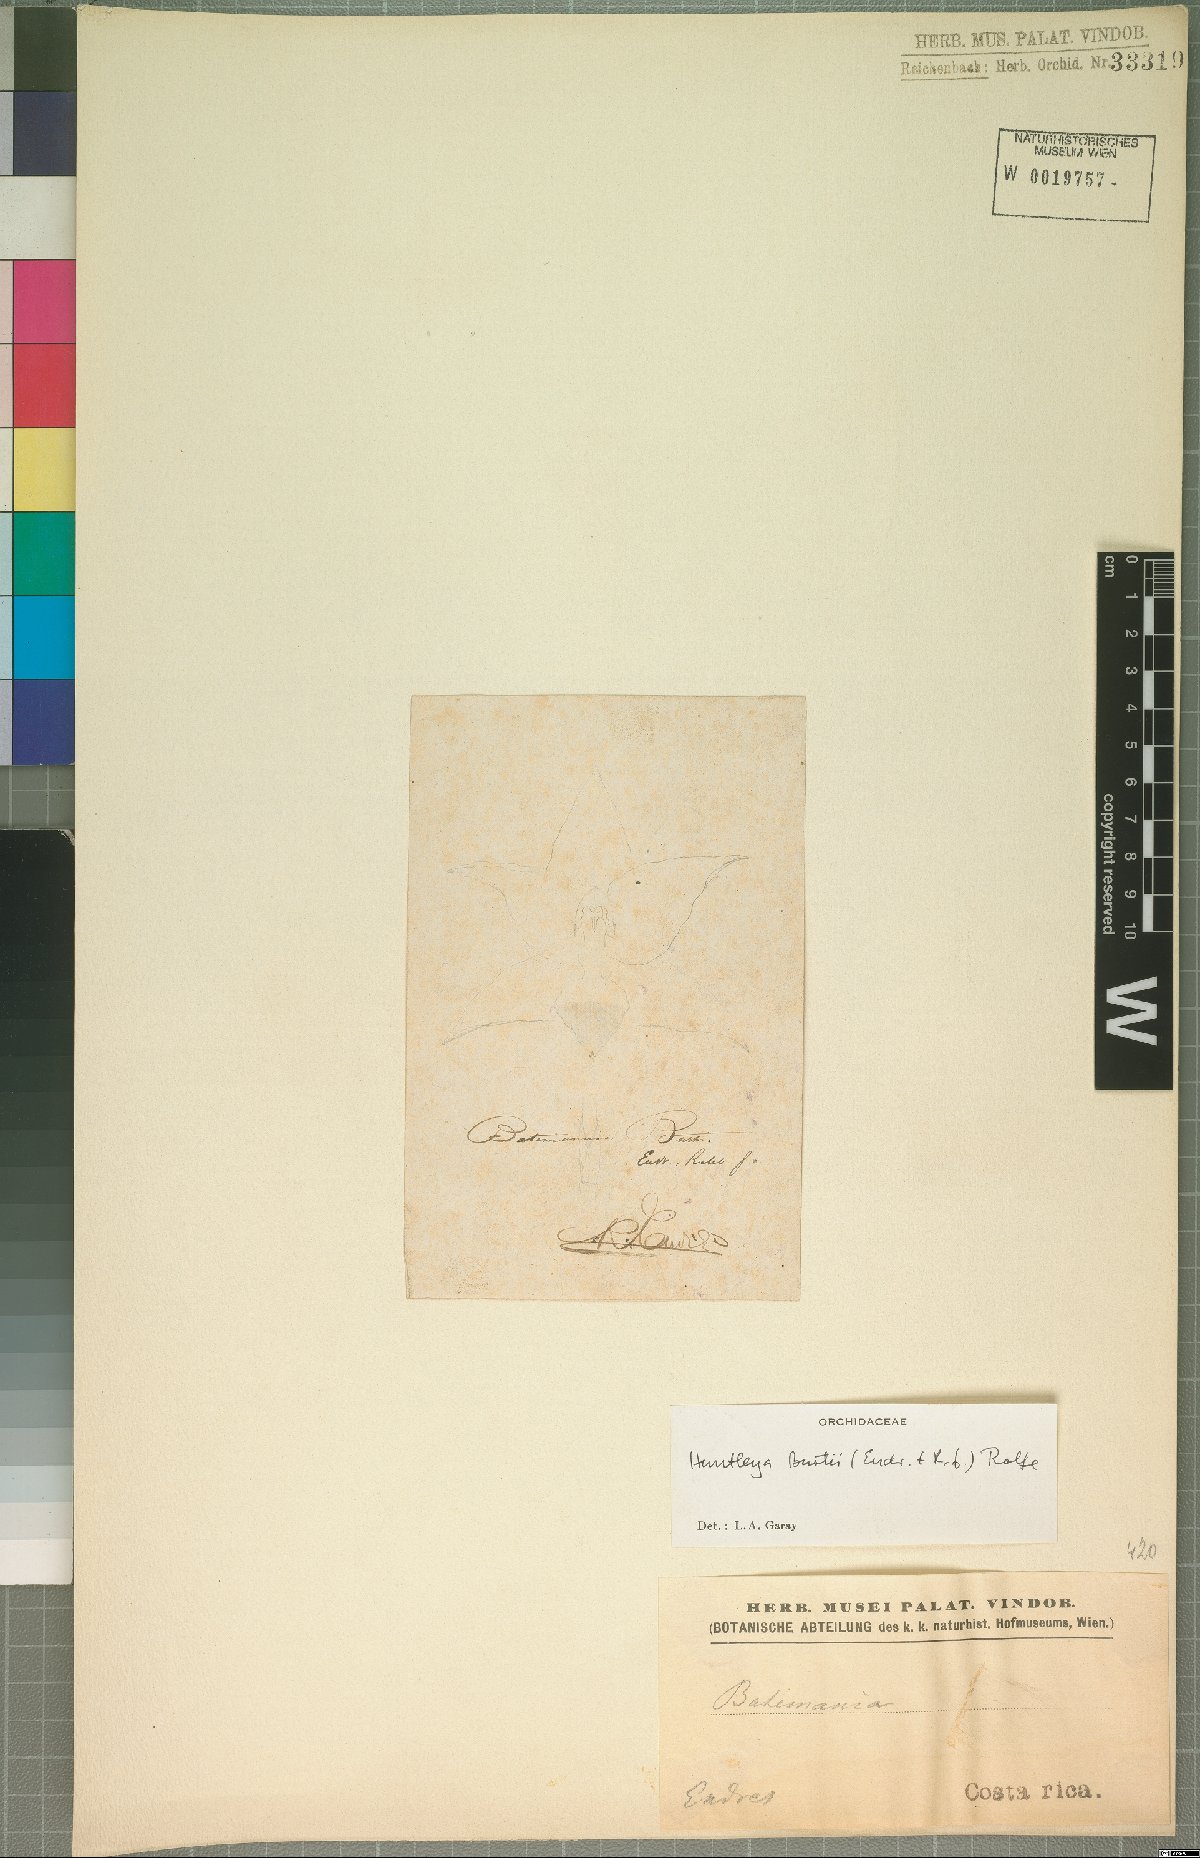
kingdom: Plantae
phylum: Tracheophyta
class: Liliopsida
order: Asparagales
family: Orchidaceae
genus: Huntleya
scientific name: Huntleya burtii
